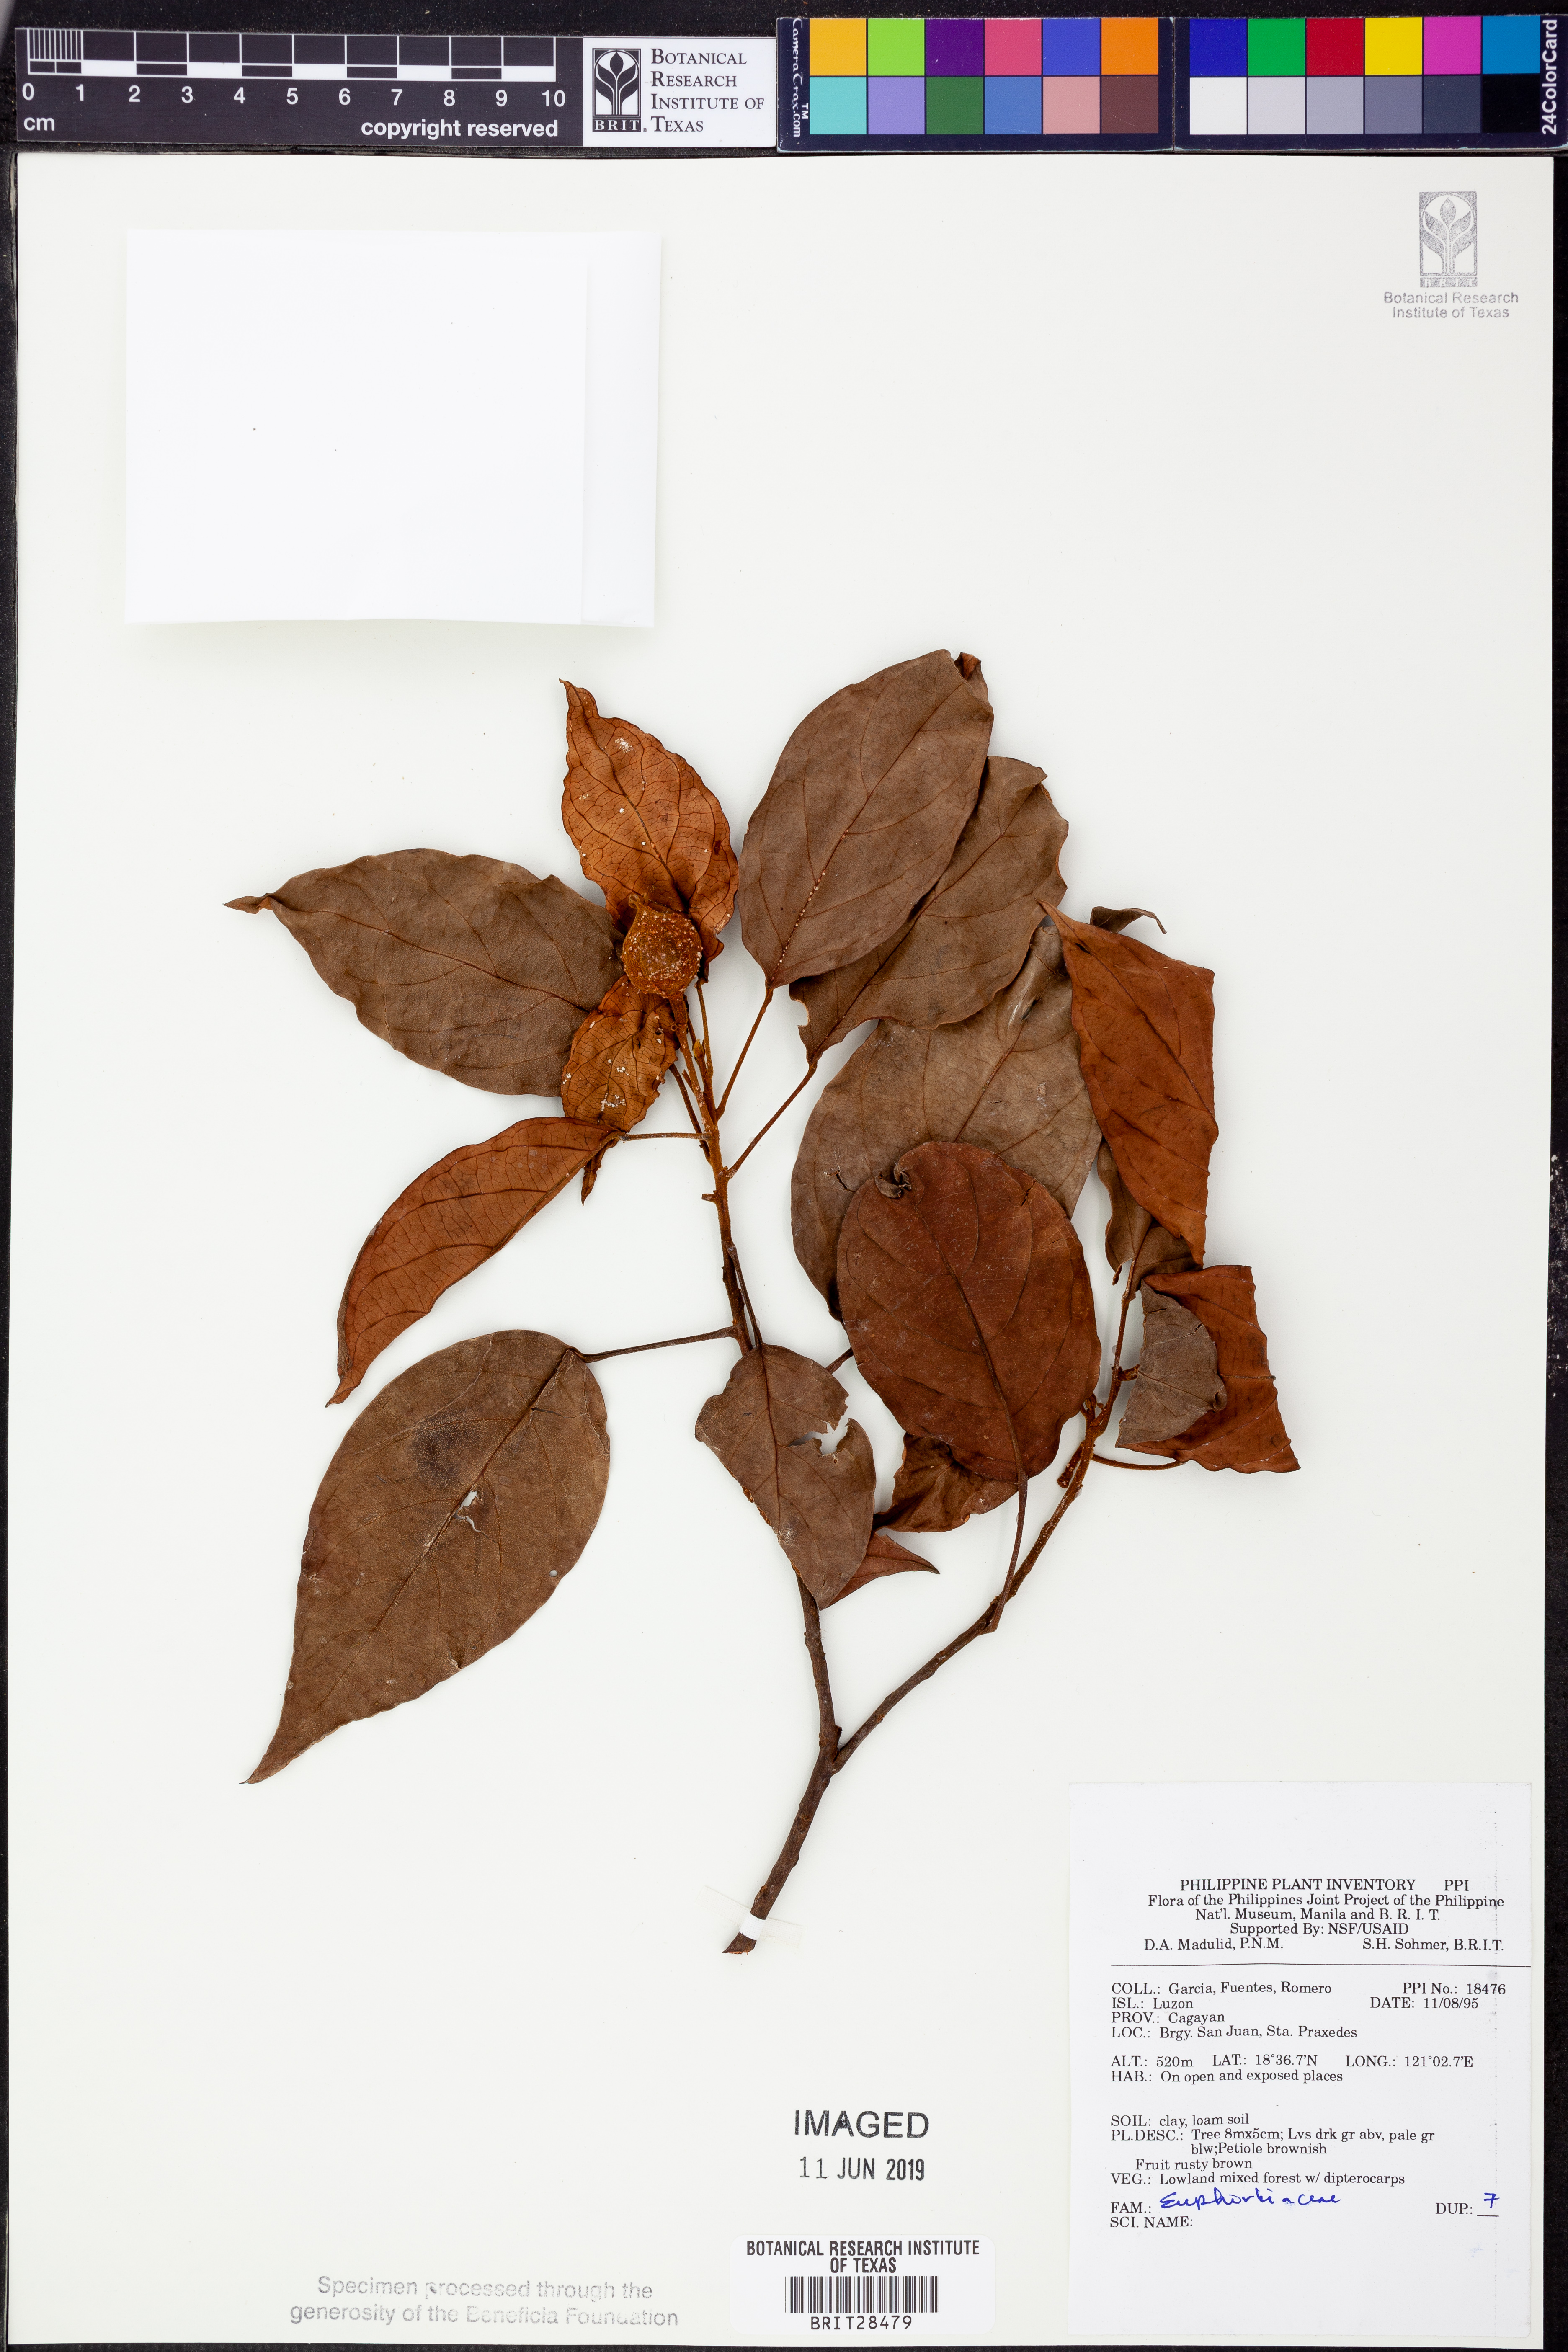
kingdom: Plantae
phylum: Tracheophyta
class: Magnoliopsida
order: Malpighiales
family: Euphorbiaceae
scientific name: Euphorbiaceae
